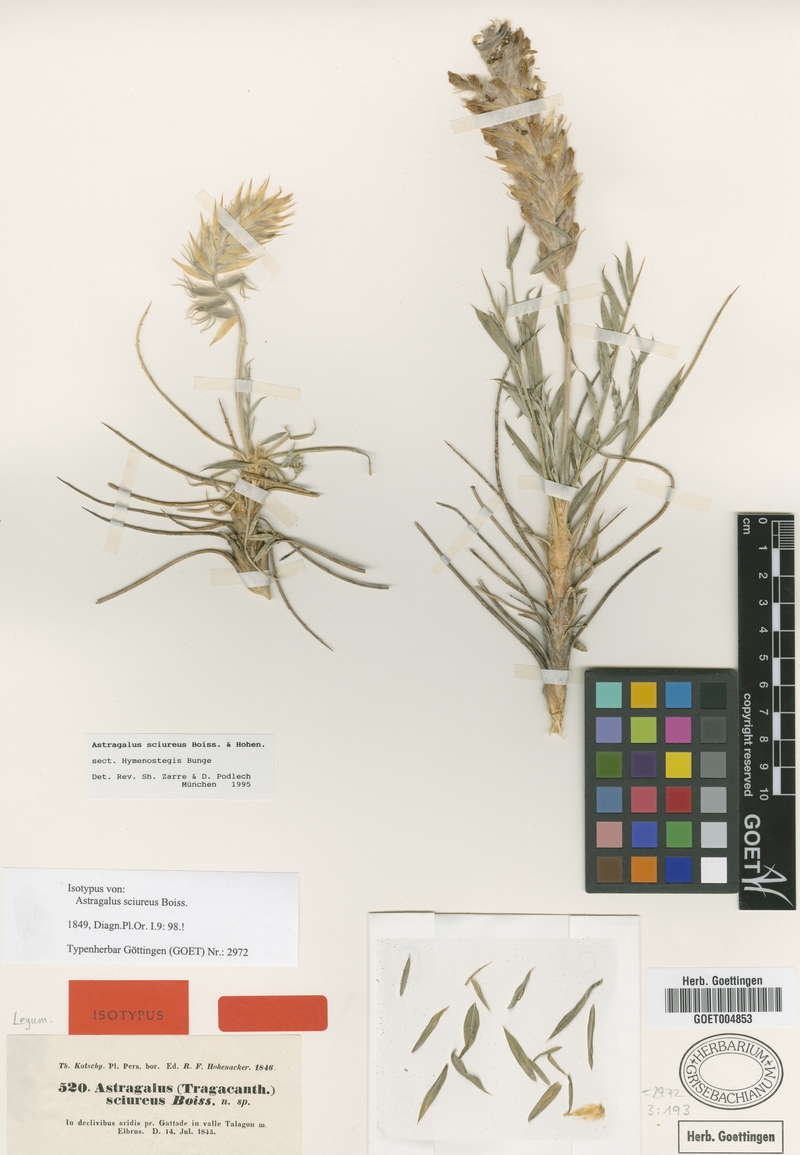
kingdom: Plantae
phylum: Tracheophyta
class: Magnoliopsida
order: Fabales
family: Fabaceae
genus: Astragalus
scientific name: Astragalus sciureus
